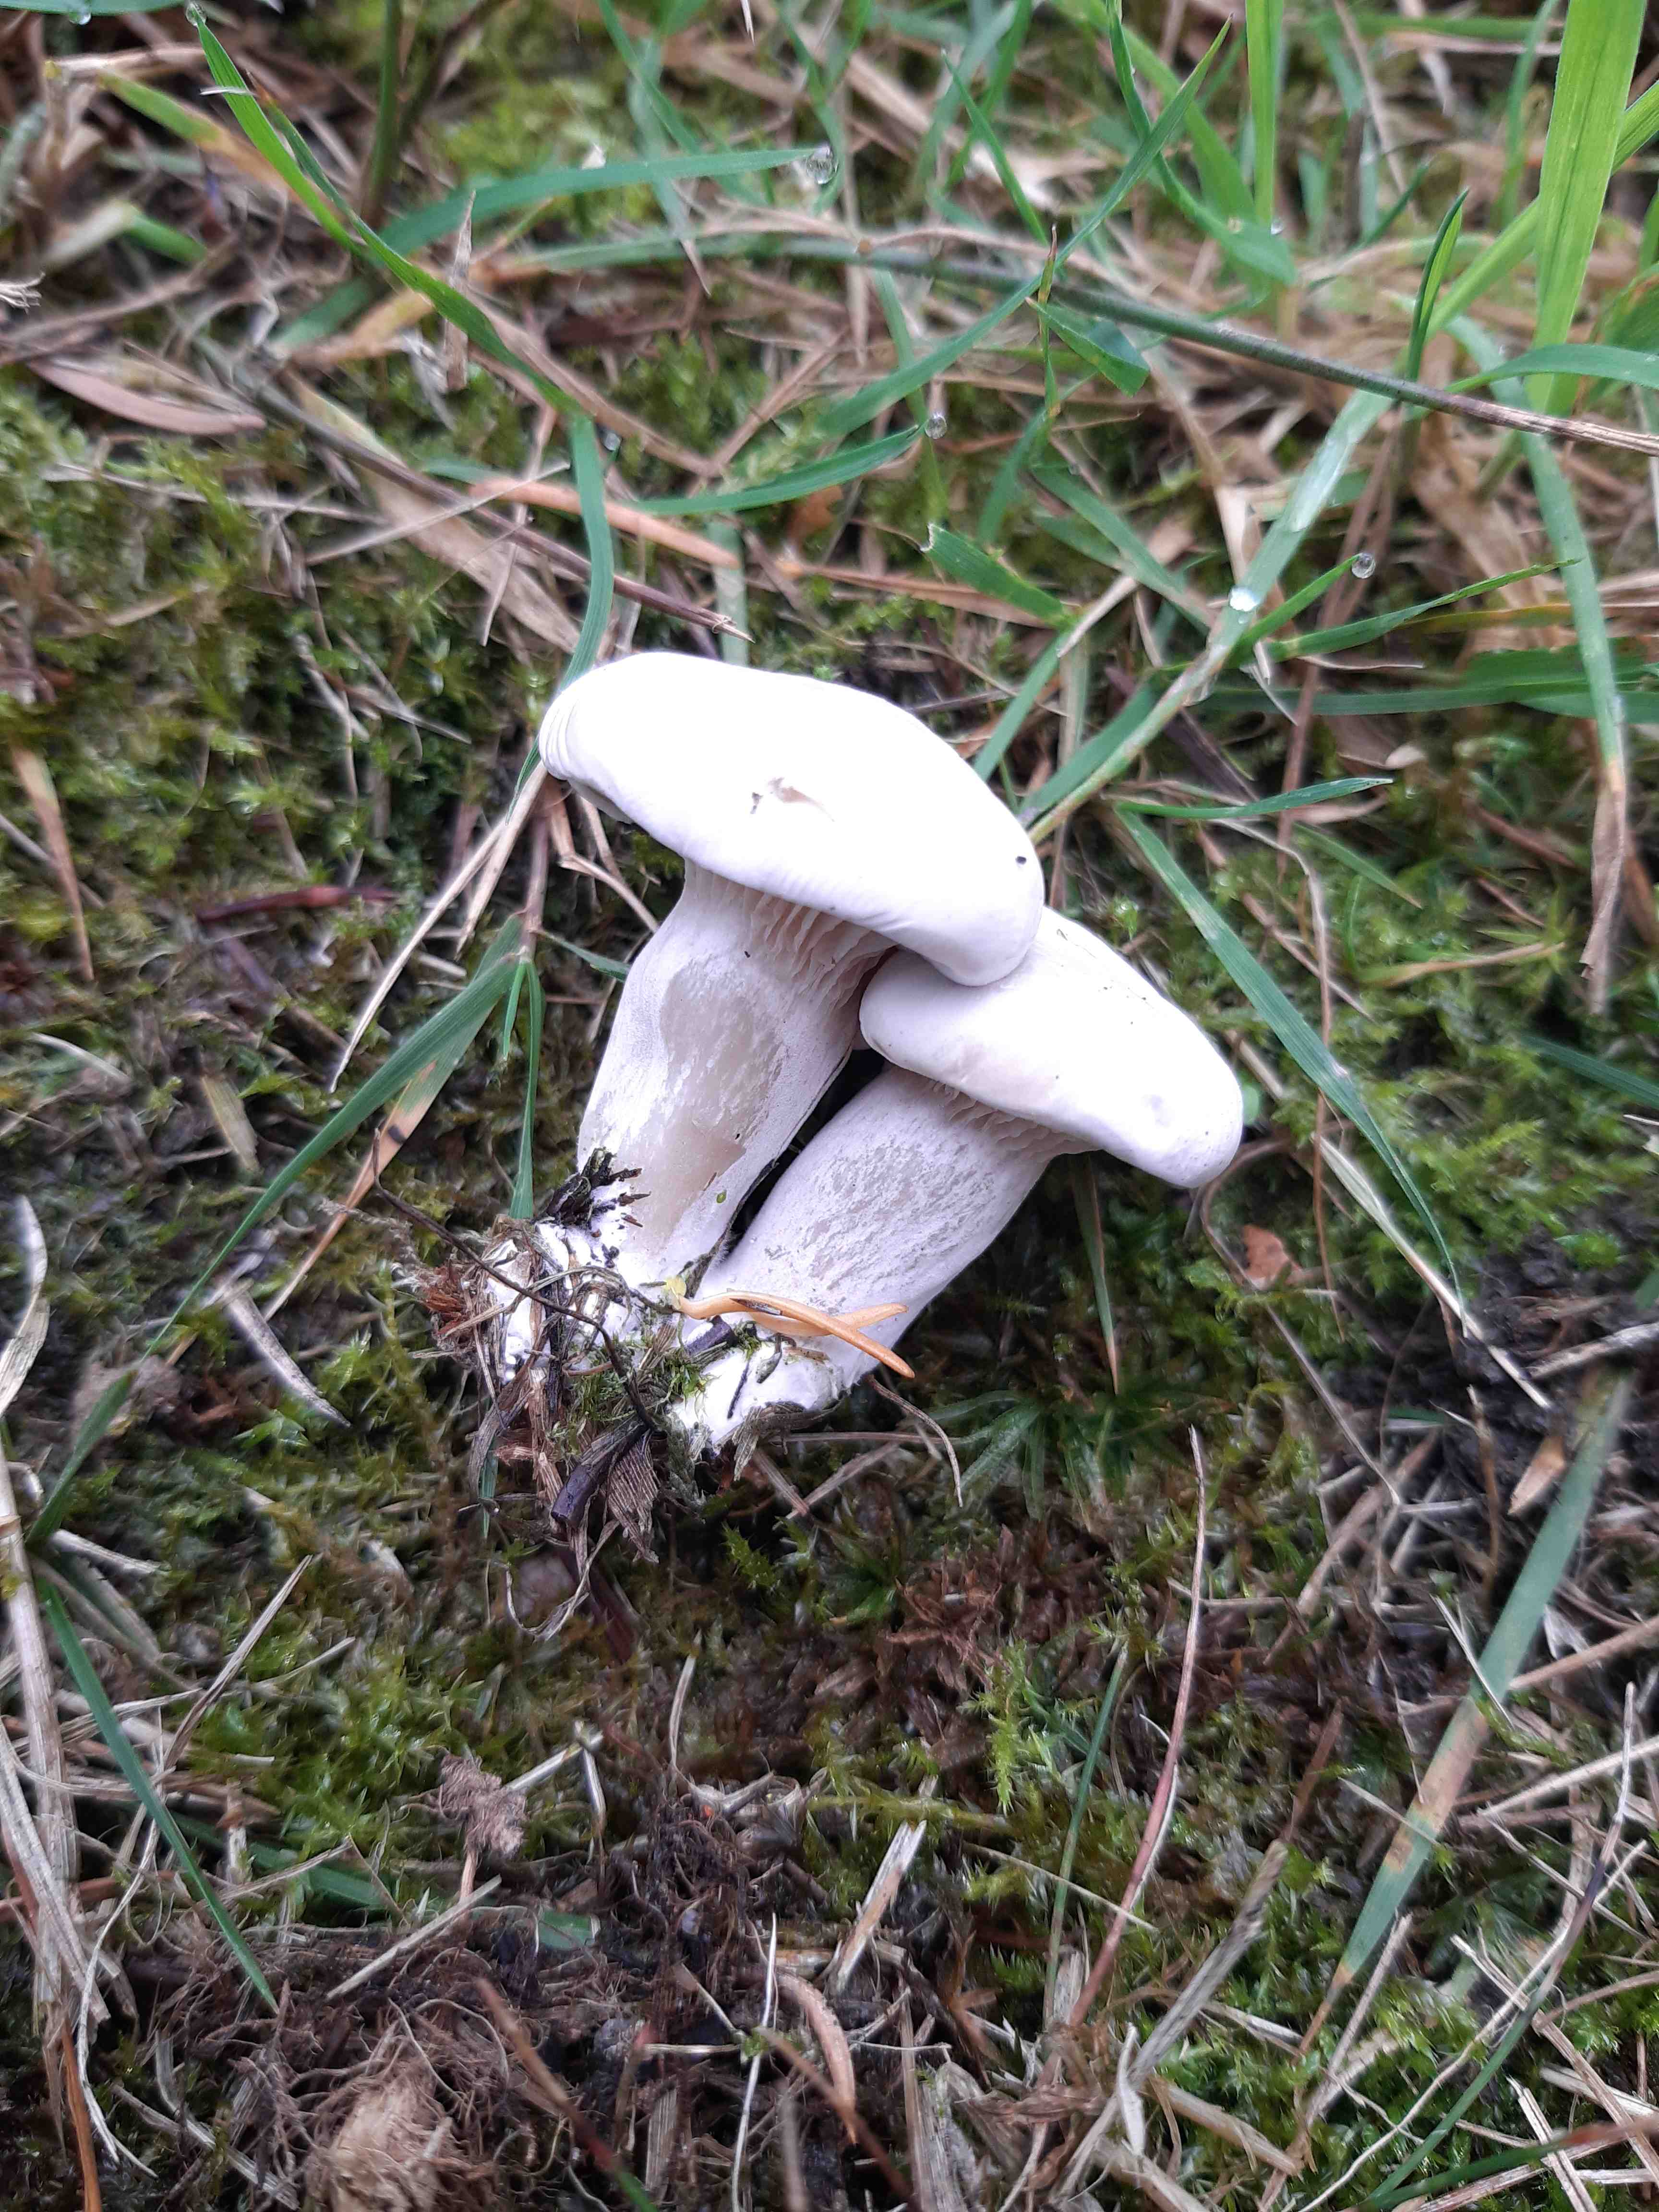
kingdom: Fungi
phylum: Basidiomycota
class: Agaricomycetes
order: Agaricales
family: Entolomataceae
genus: Clitopilus
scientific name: Clitopilus prunulus
